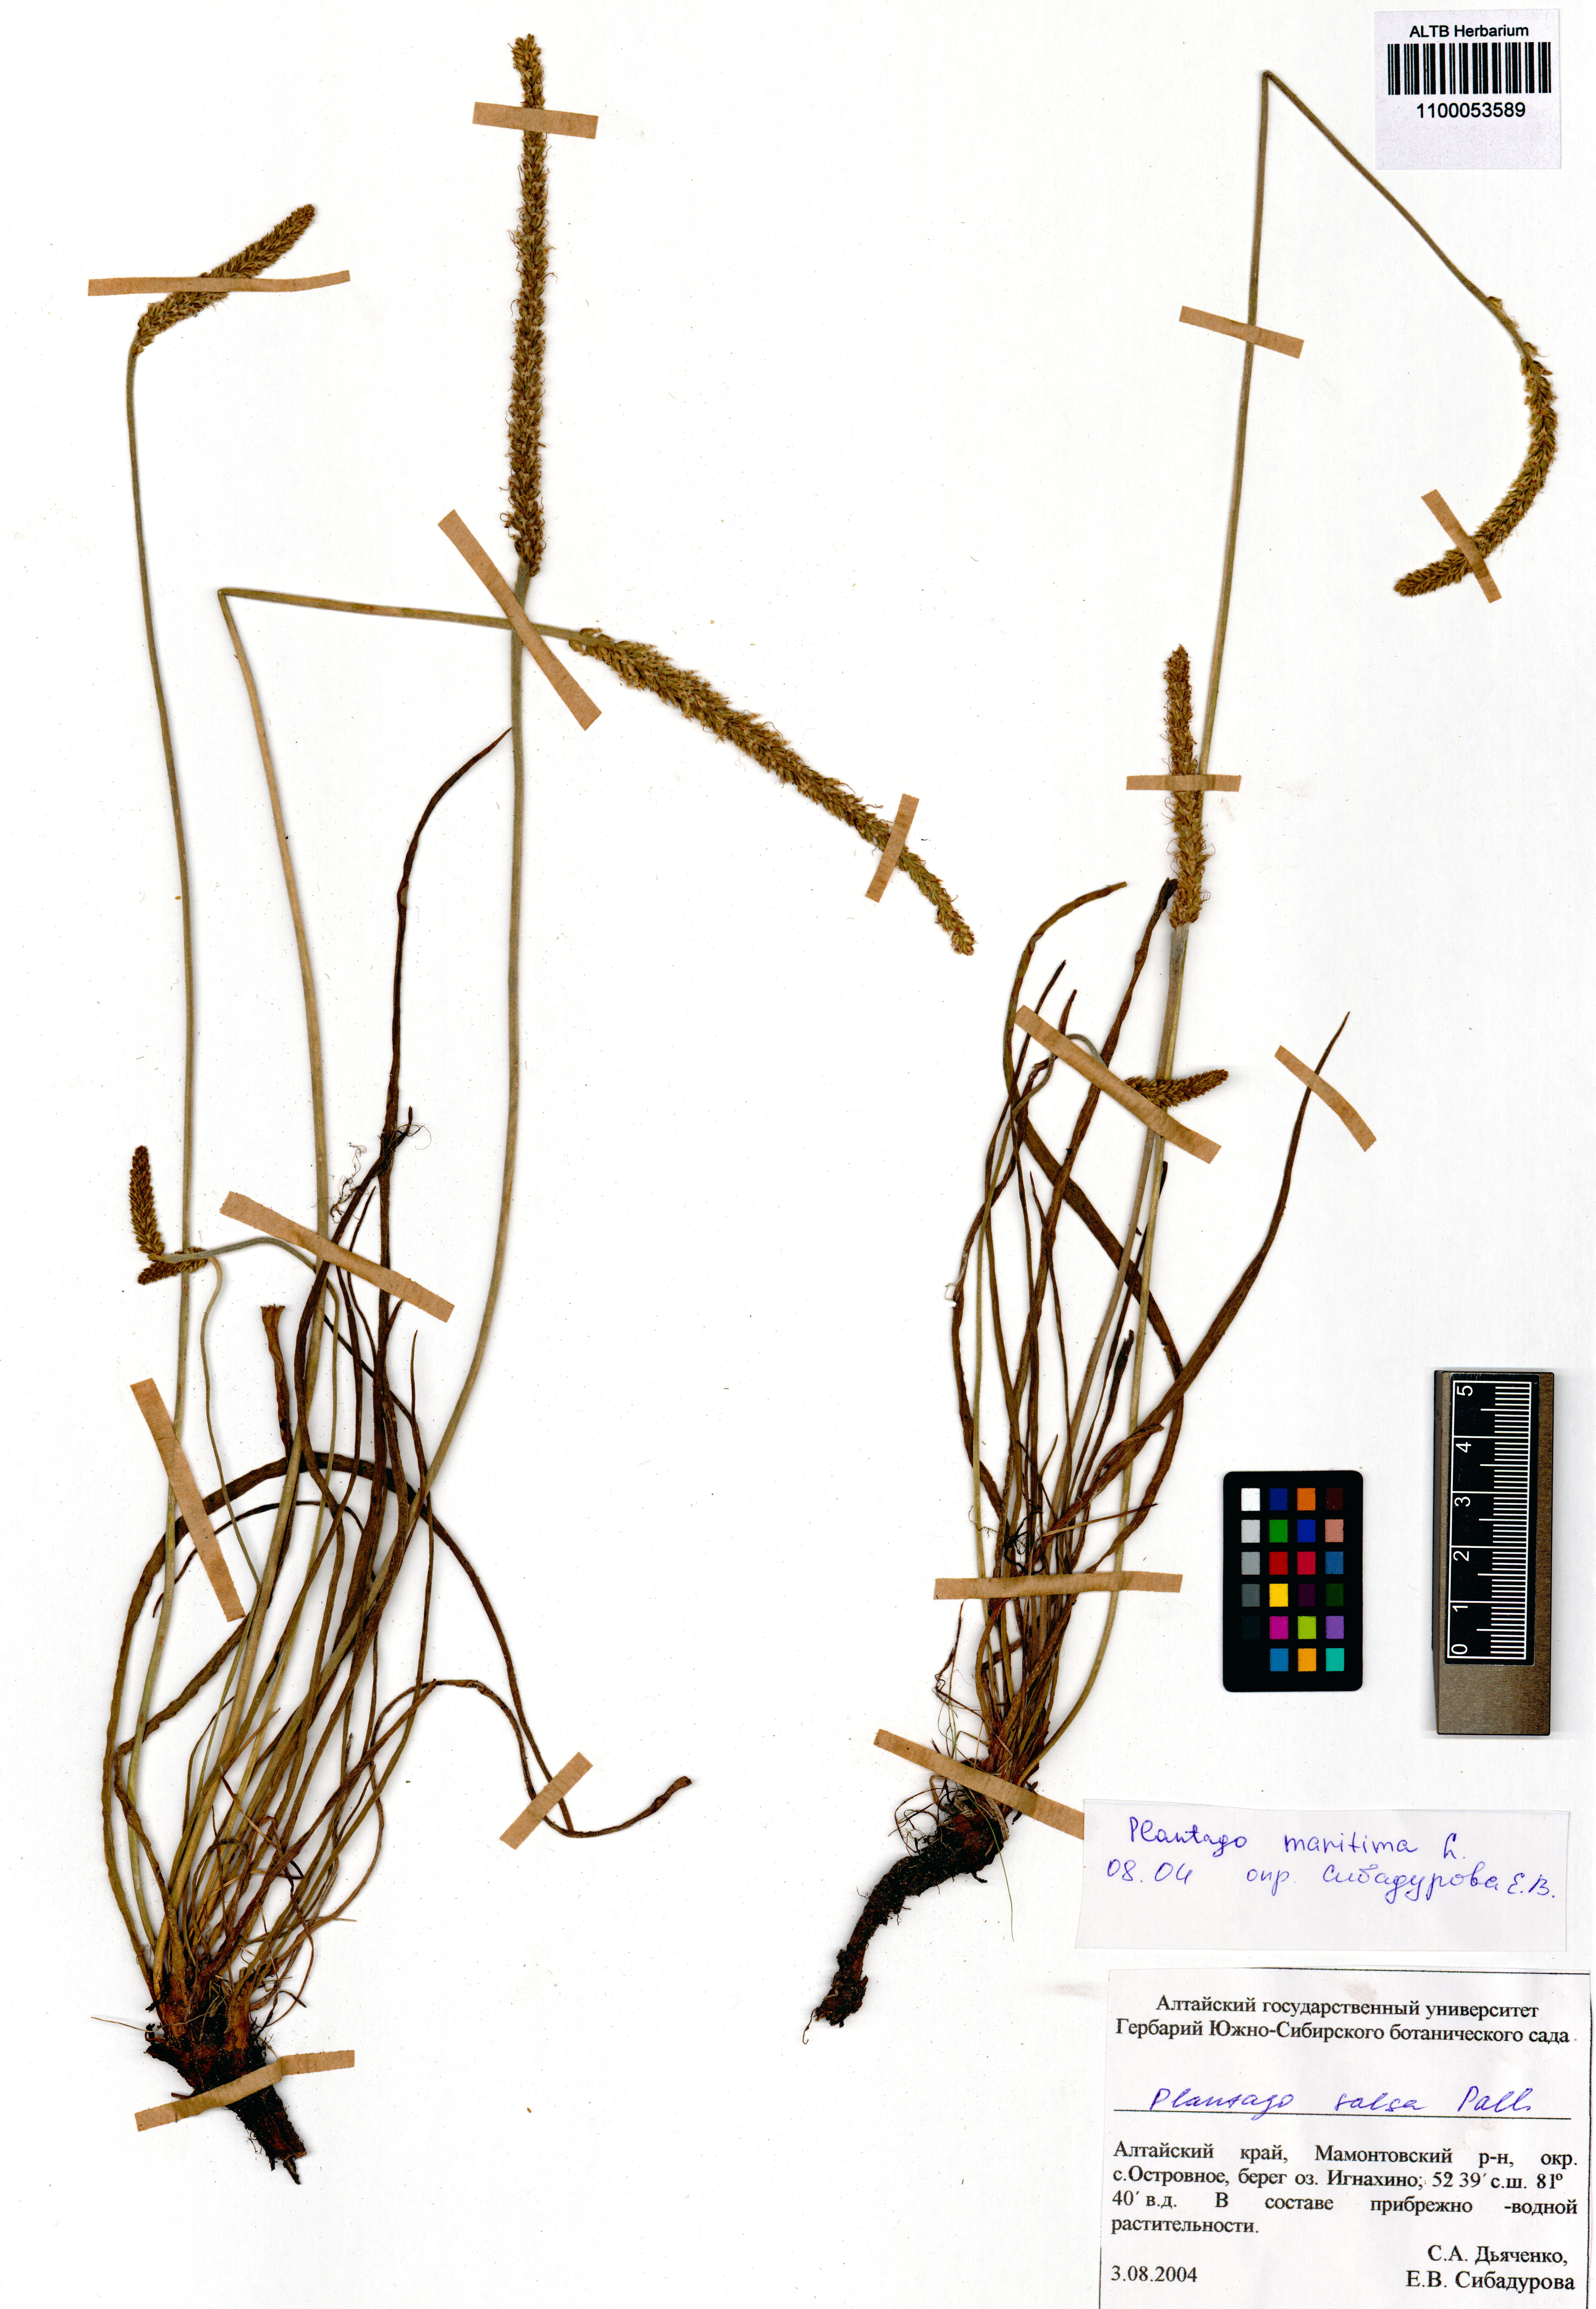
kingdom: Plantae
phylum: Tracheophyta
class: Magnoliopsida
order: Lamiales
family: Plantaginaceae
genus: Plantago
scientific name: Plantago maritima
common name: Sea plantain
